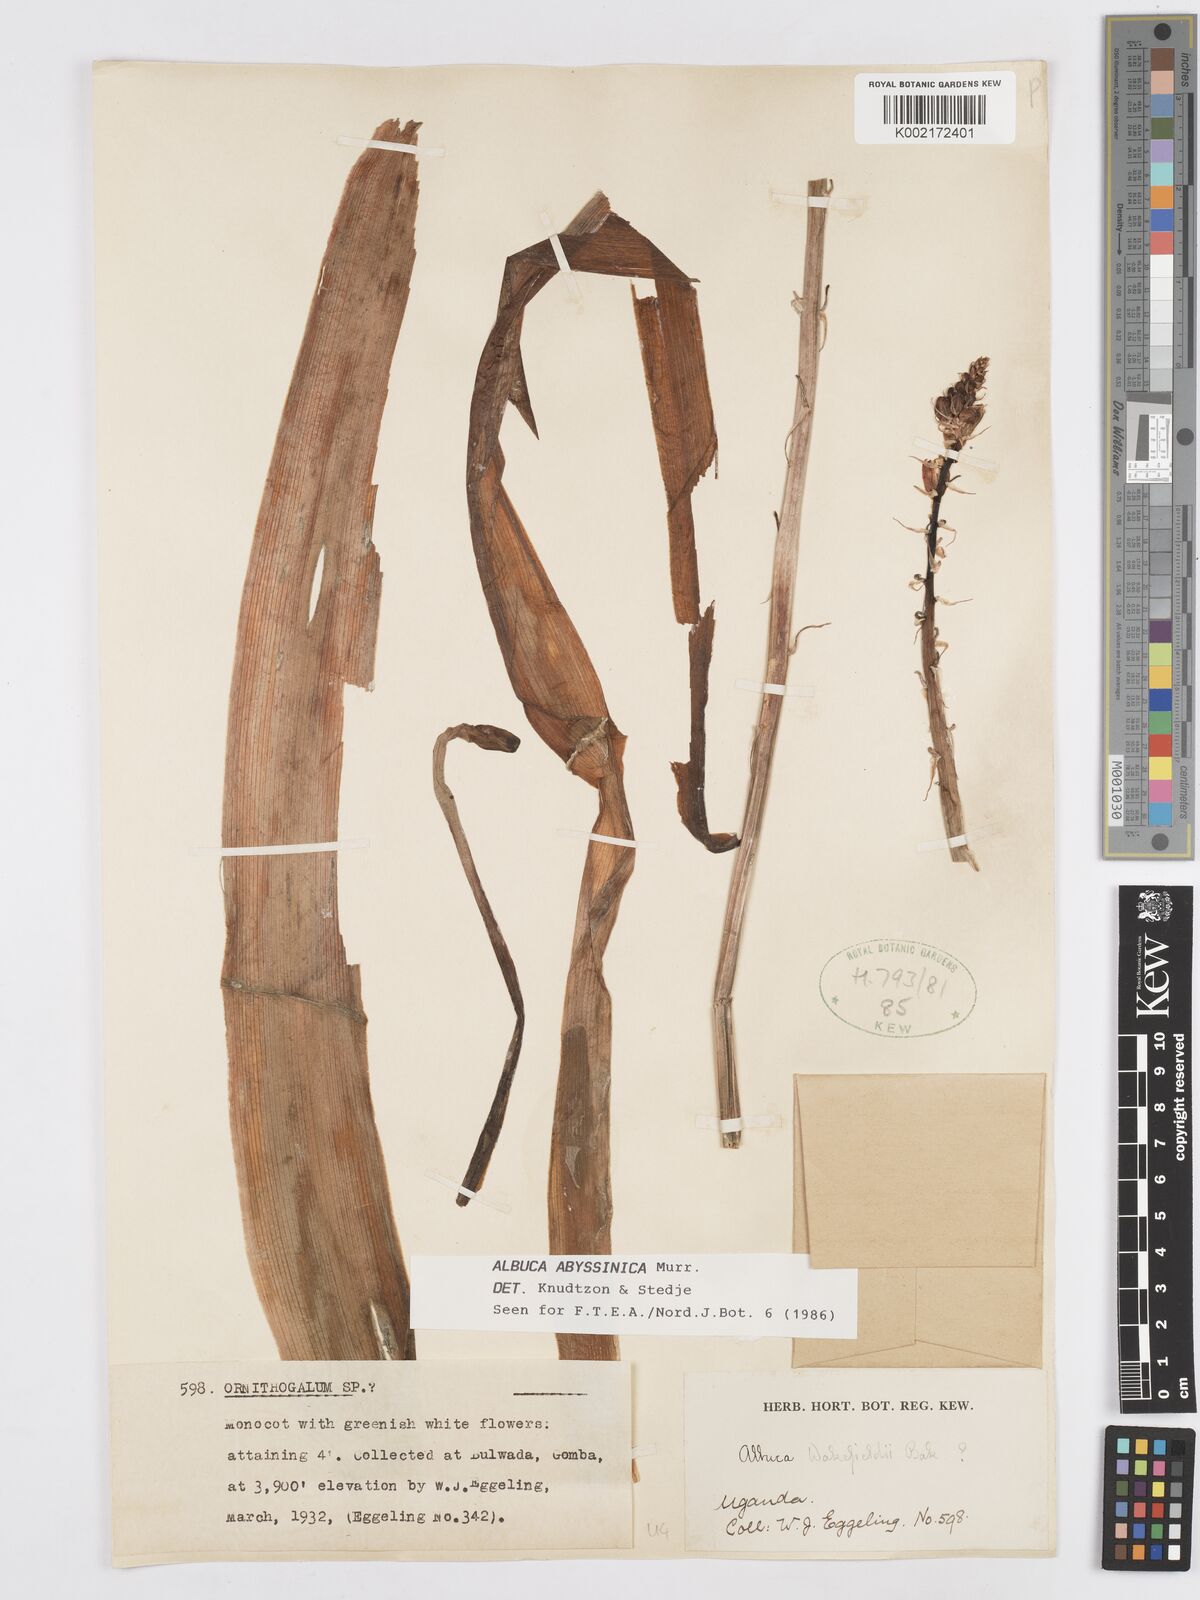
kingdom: Plantae
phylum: Tracheophyta
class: Liliopsida
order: Asparagales
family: Asparagaceae
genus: Albuca
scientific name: Albuca abyssinica
